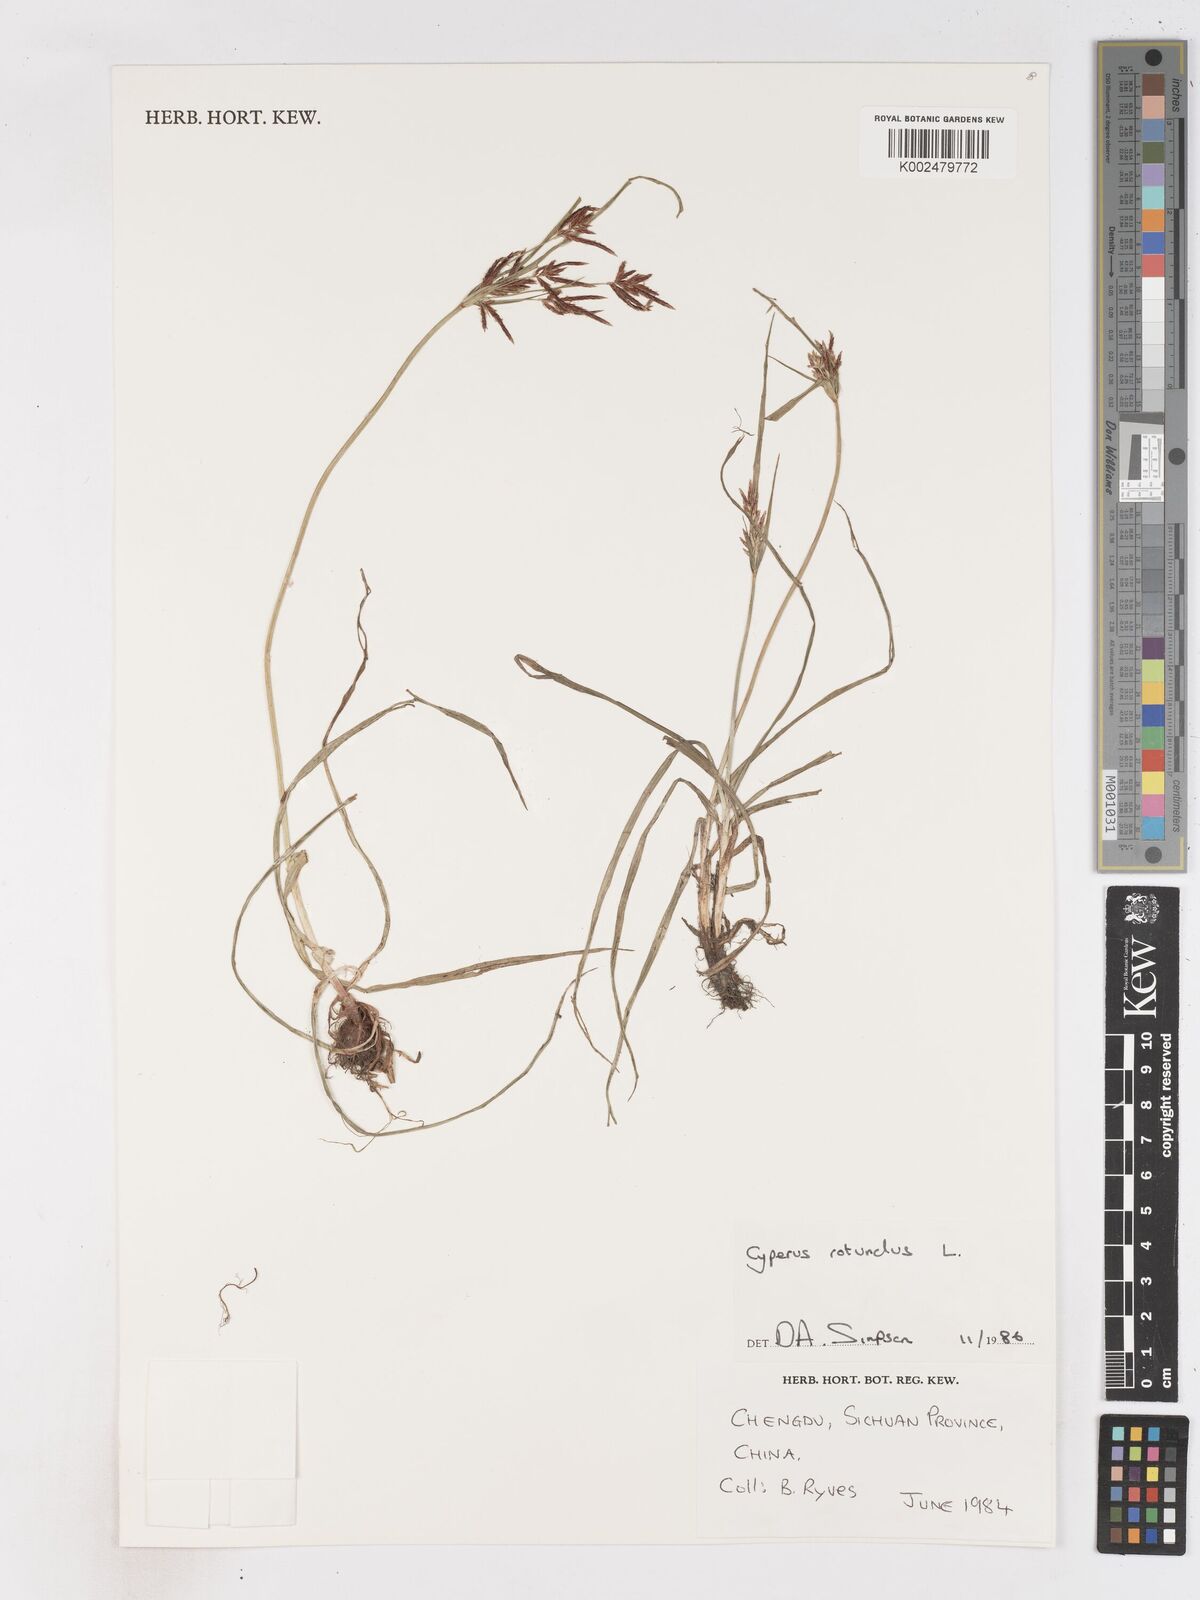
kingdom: Plantae
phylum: Tracheophyta
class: Liliopsida
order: Poales
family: Cyperaceae
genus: Cyperus
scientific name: Cyperus rotundus
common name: Nutgrass
